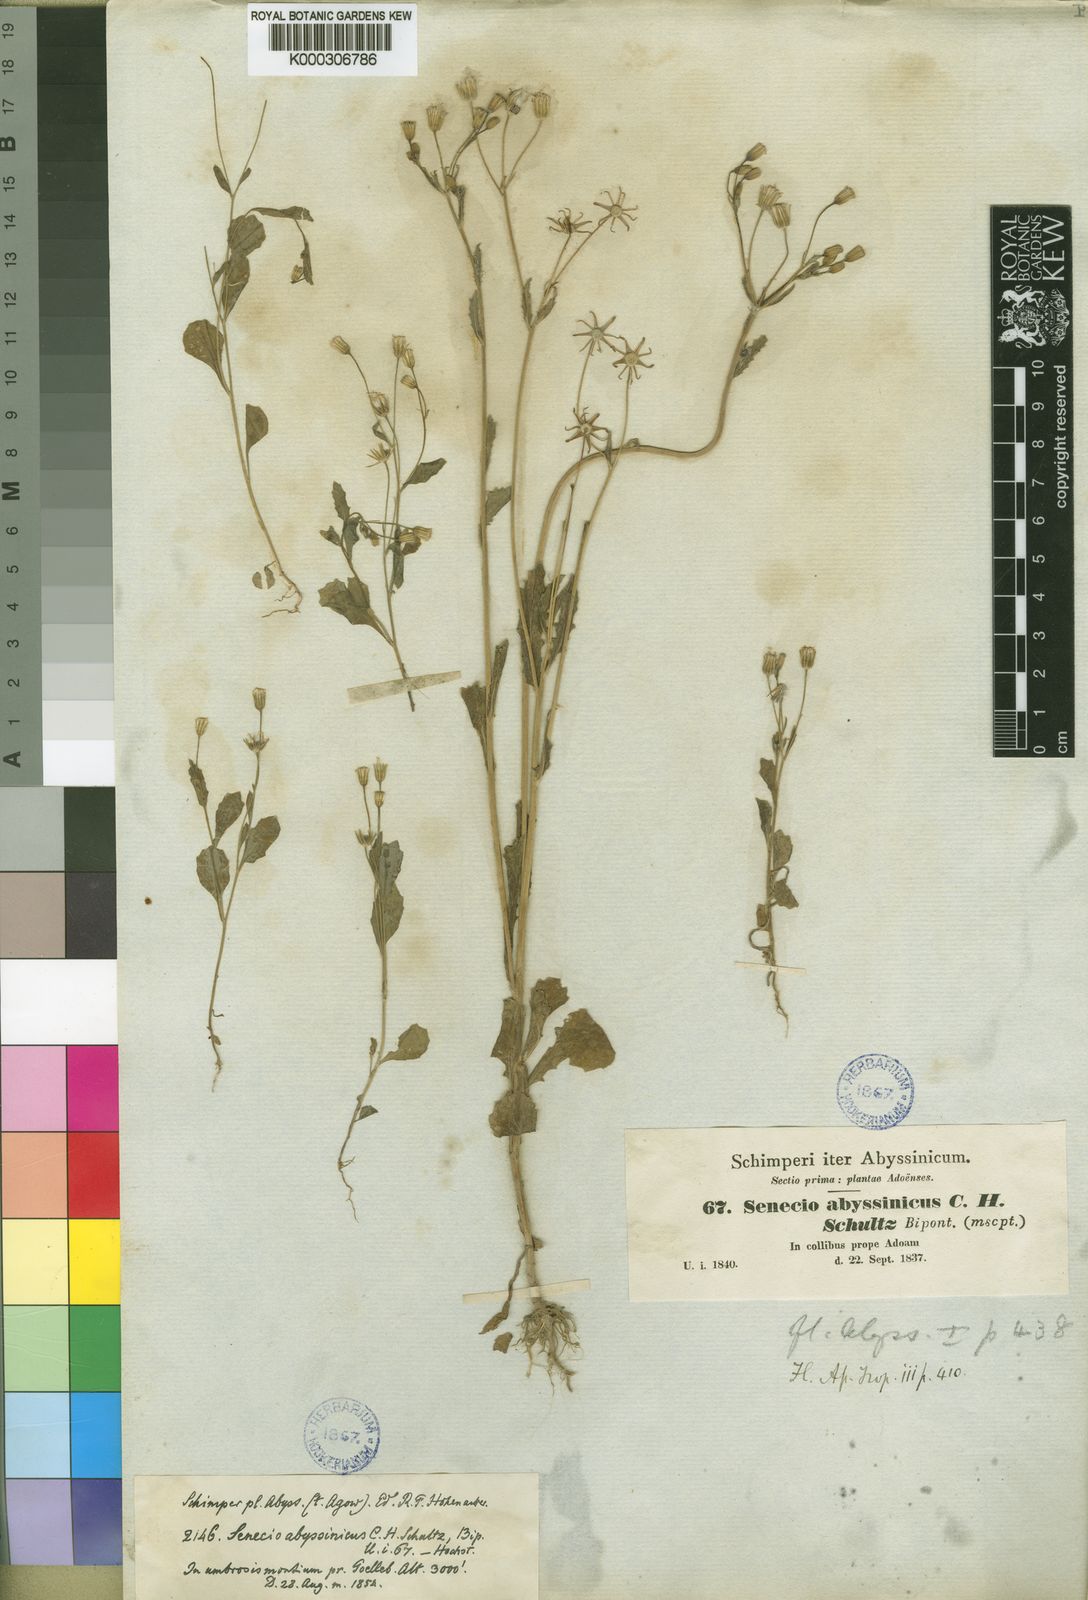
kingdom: Plantae
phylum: Tracheophyta
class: Magnoliopsida
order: Asterales
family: Asteraceae
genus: Emilia
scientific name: Emilia abyssinica
